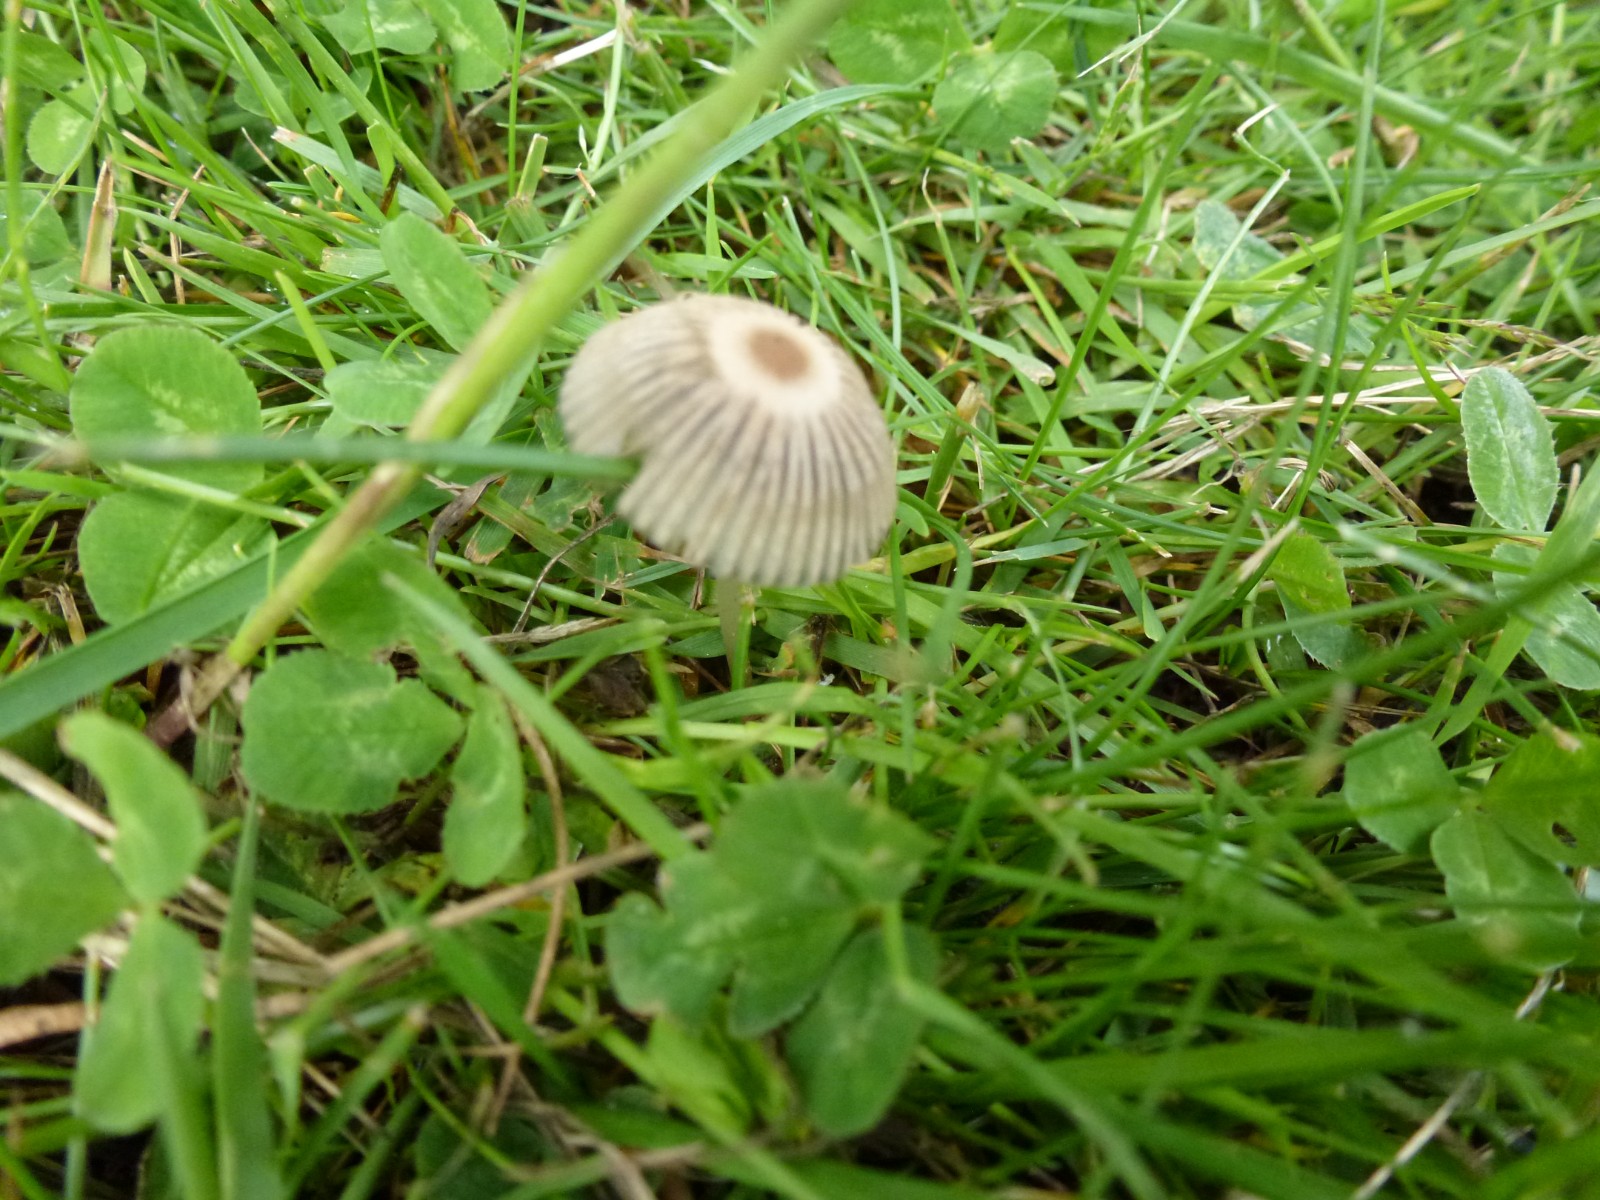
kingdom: Fungi
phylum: Basidiomycota
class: Agaricomycetes
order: Agaricales
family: Psathyrellaceae
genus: Parasola
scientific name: Parasola
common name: hjulhat
